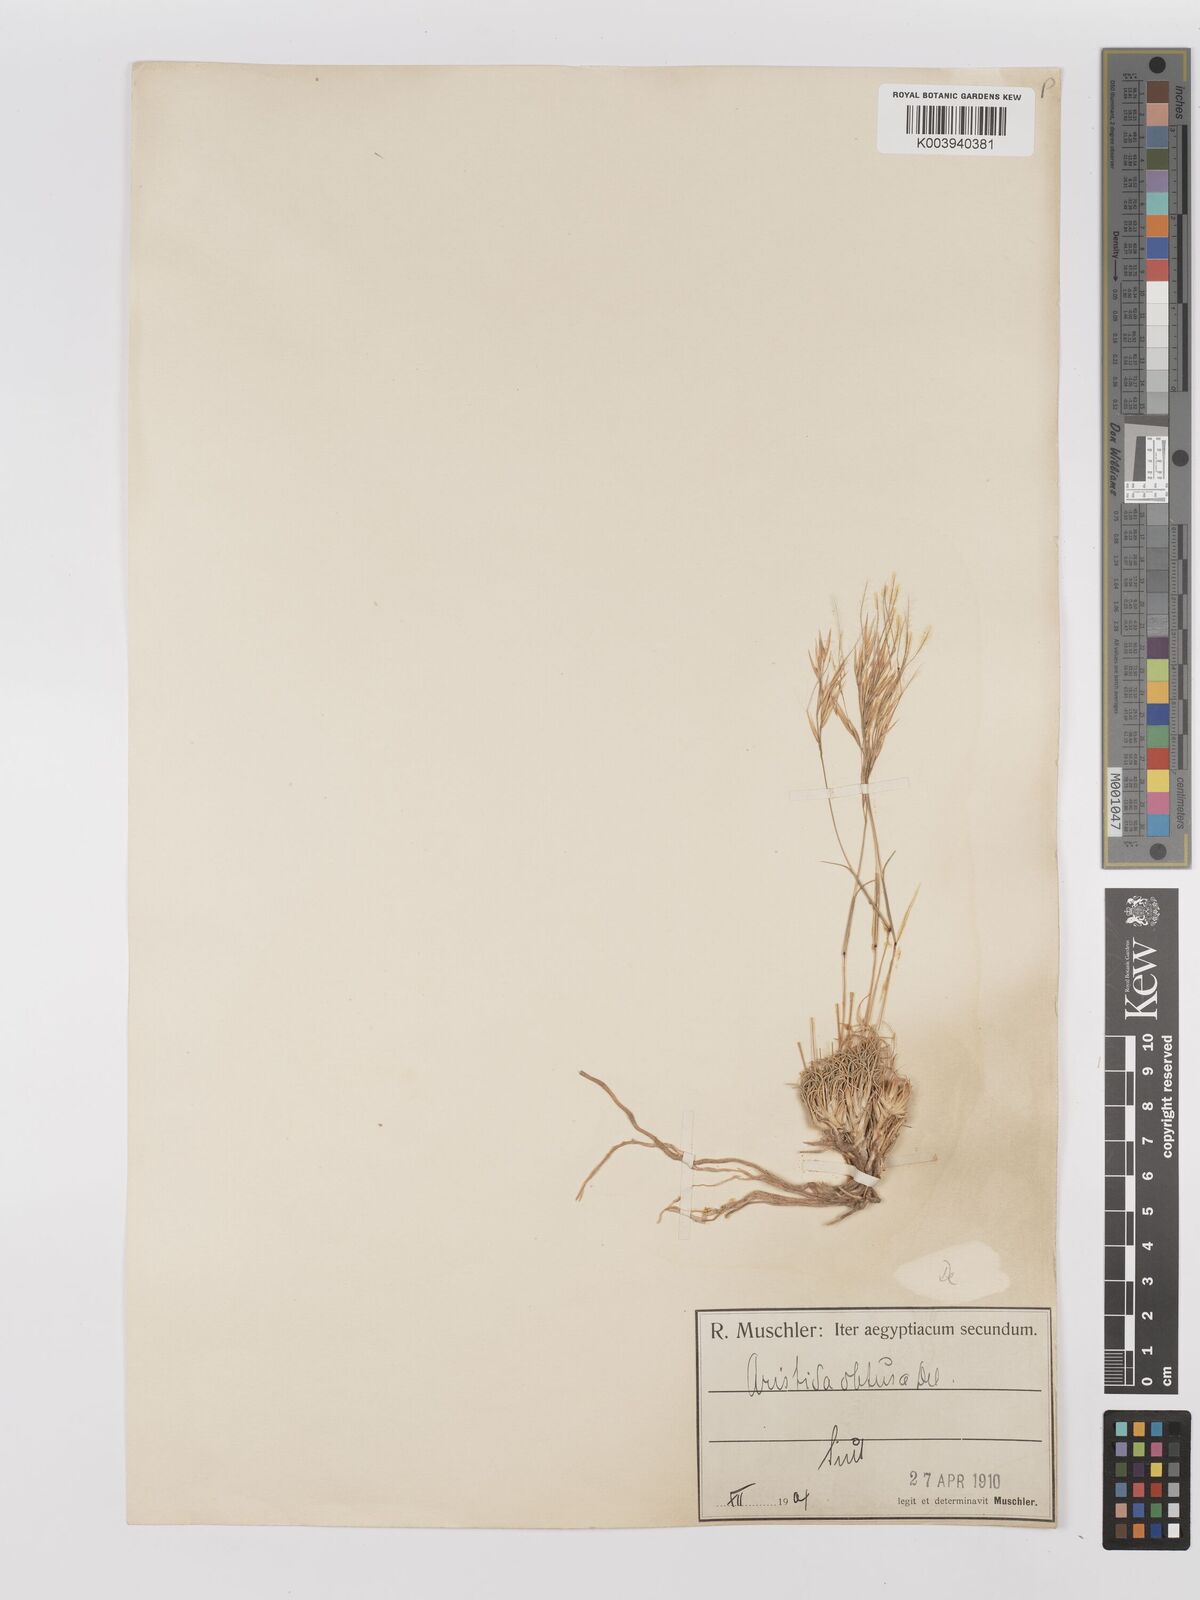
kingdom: Plantae
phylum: Tracheophyta
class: Liliopsida
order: Poales
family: Poaceae
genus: Stipagrostis
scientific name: Stipagrostis obtusa
